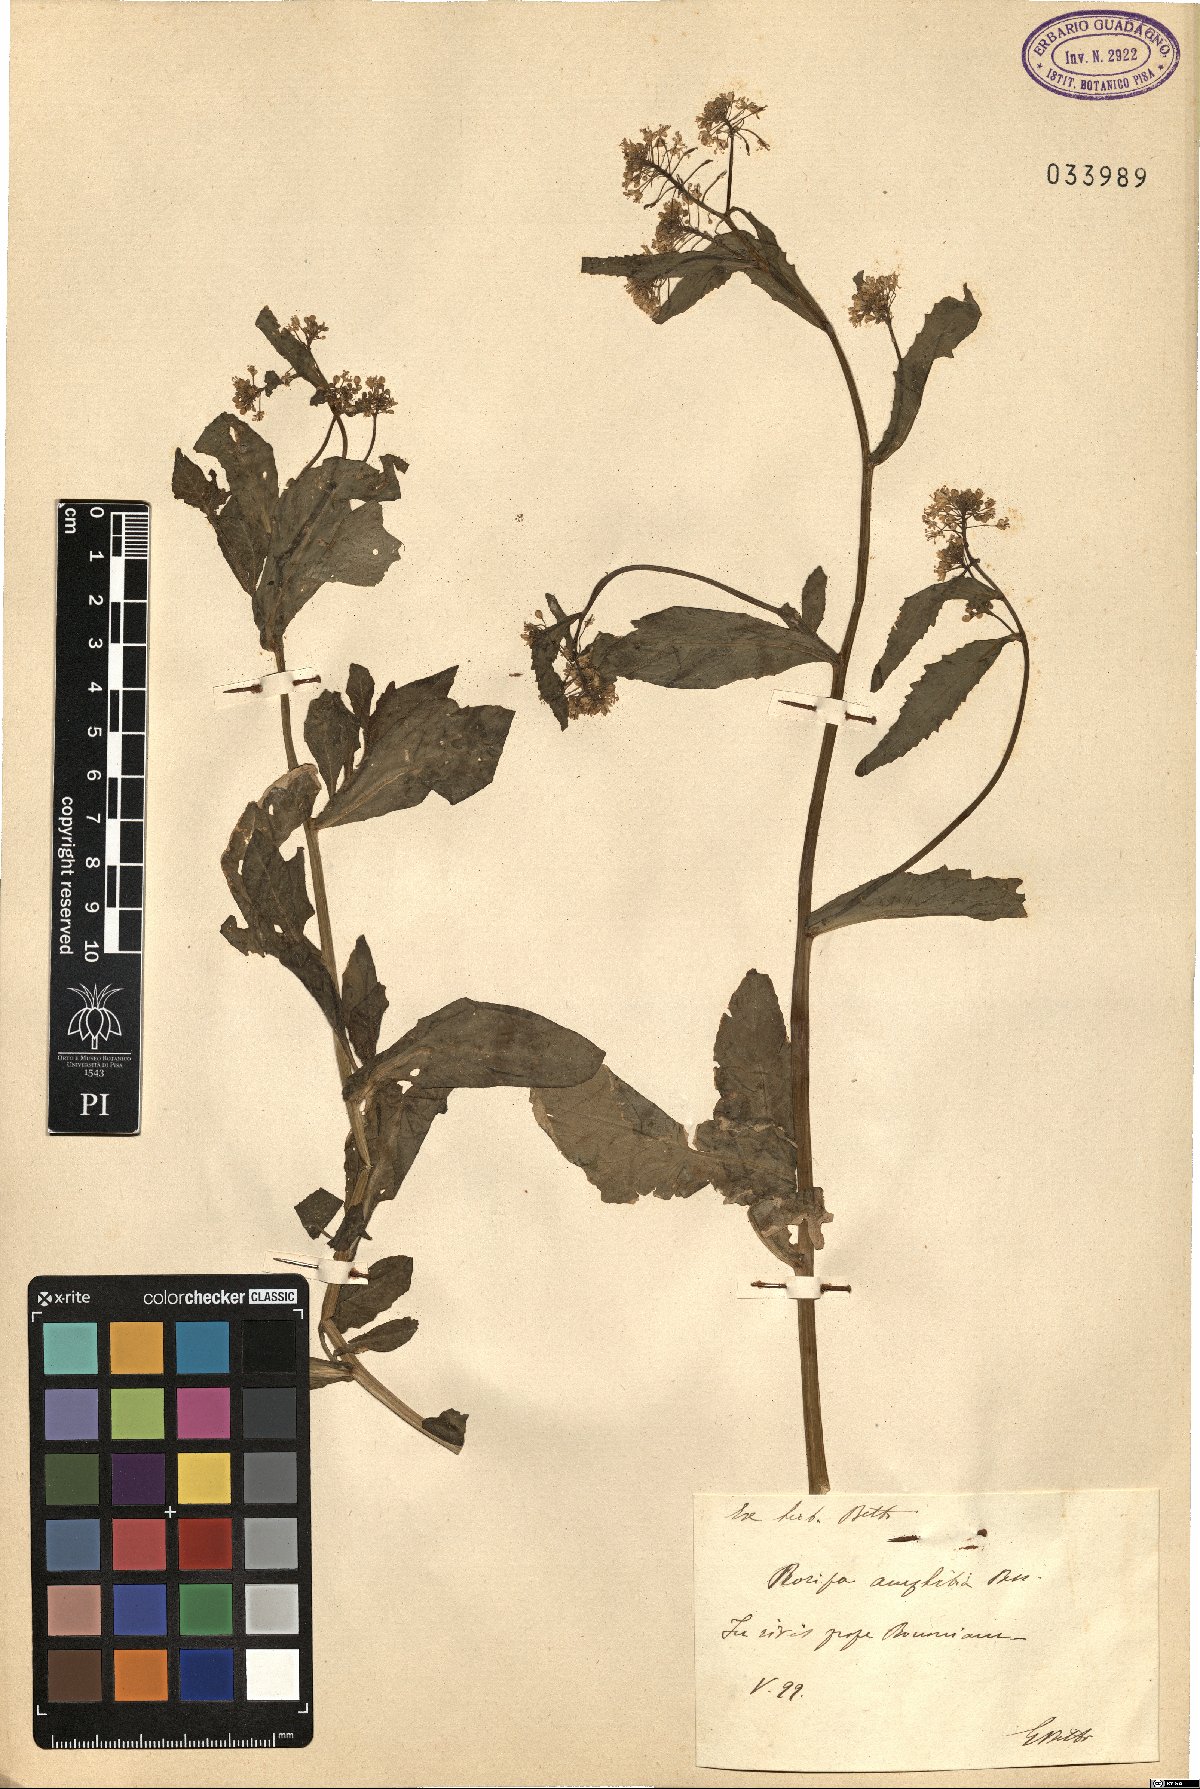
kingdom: Plantae
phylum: Tracheophyta
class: Magnoliopsida
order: Brassicales
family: Brassicaceae
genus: Rorippa
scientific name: Rorippa amphibia
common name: Great yellow-cress
